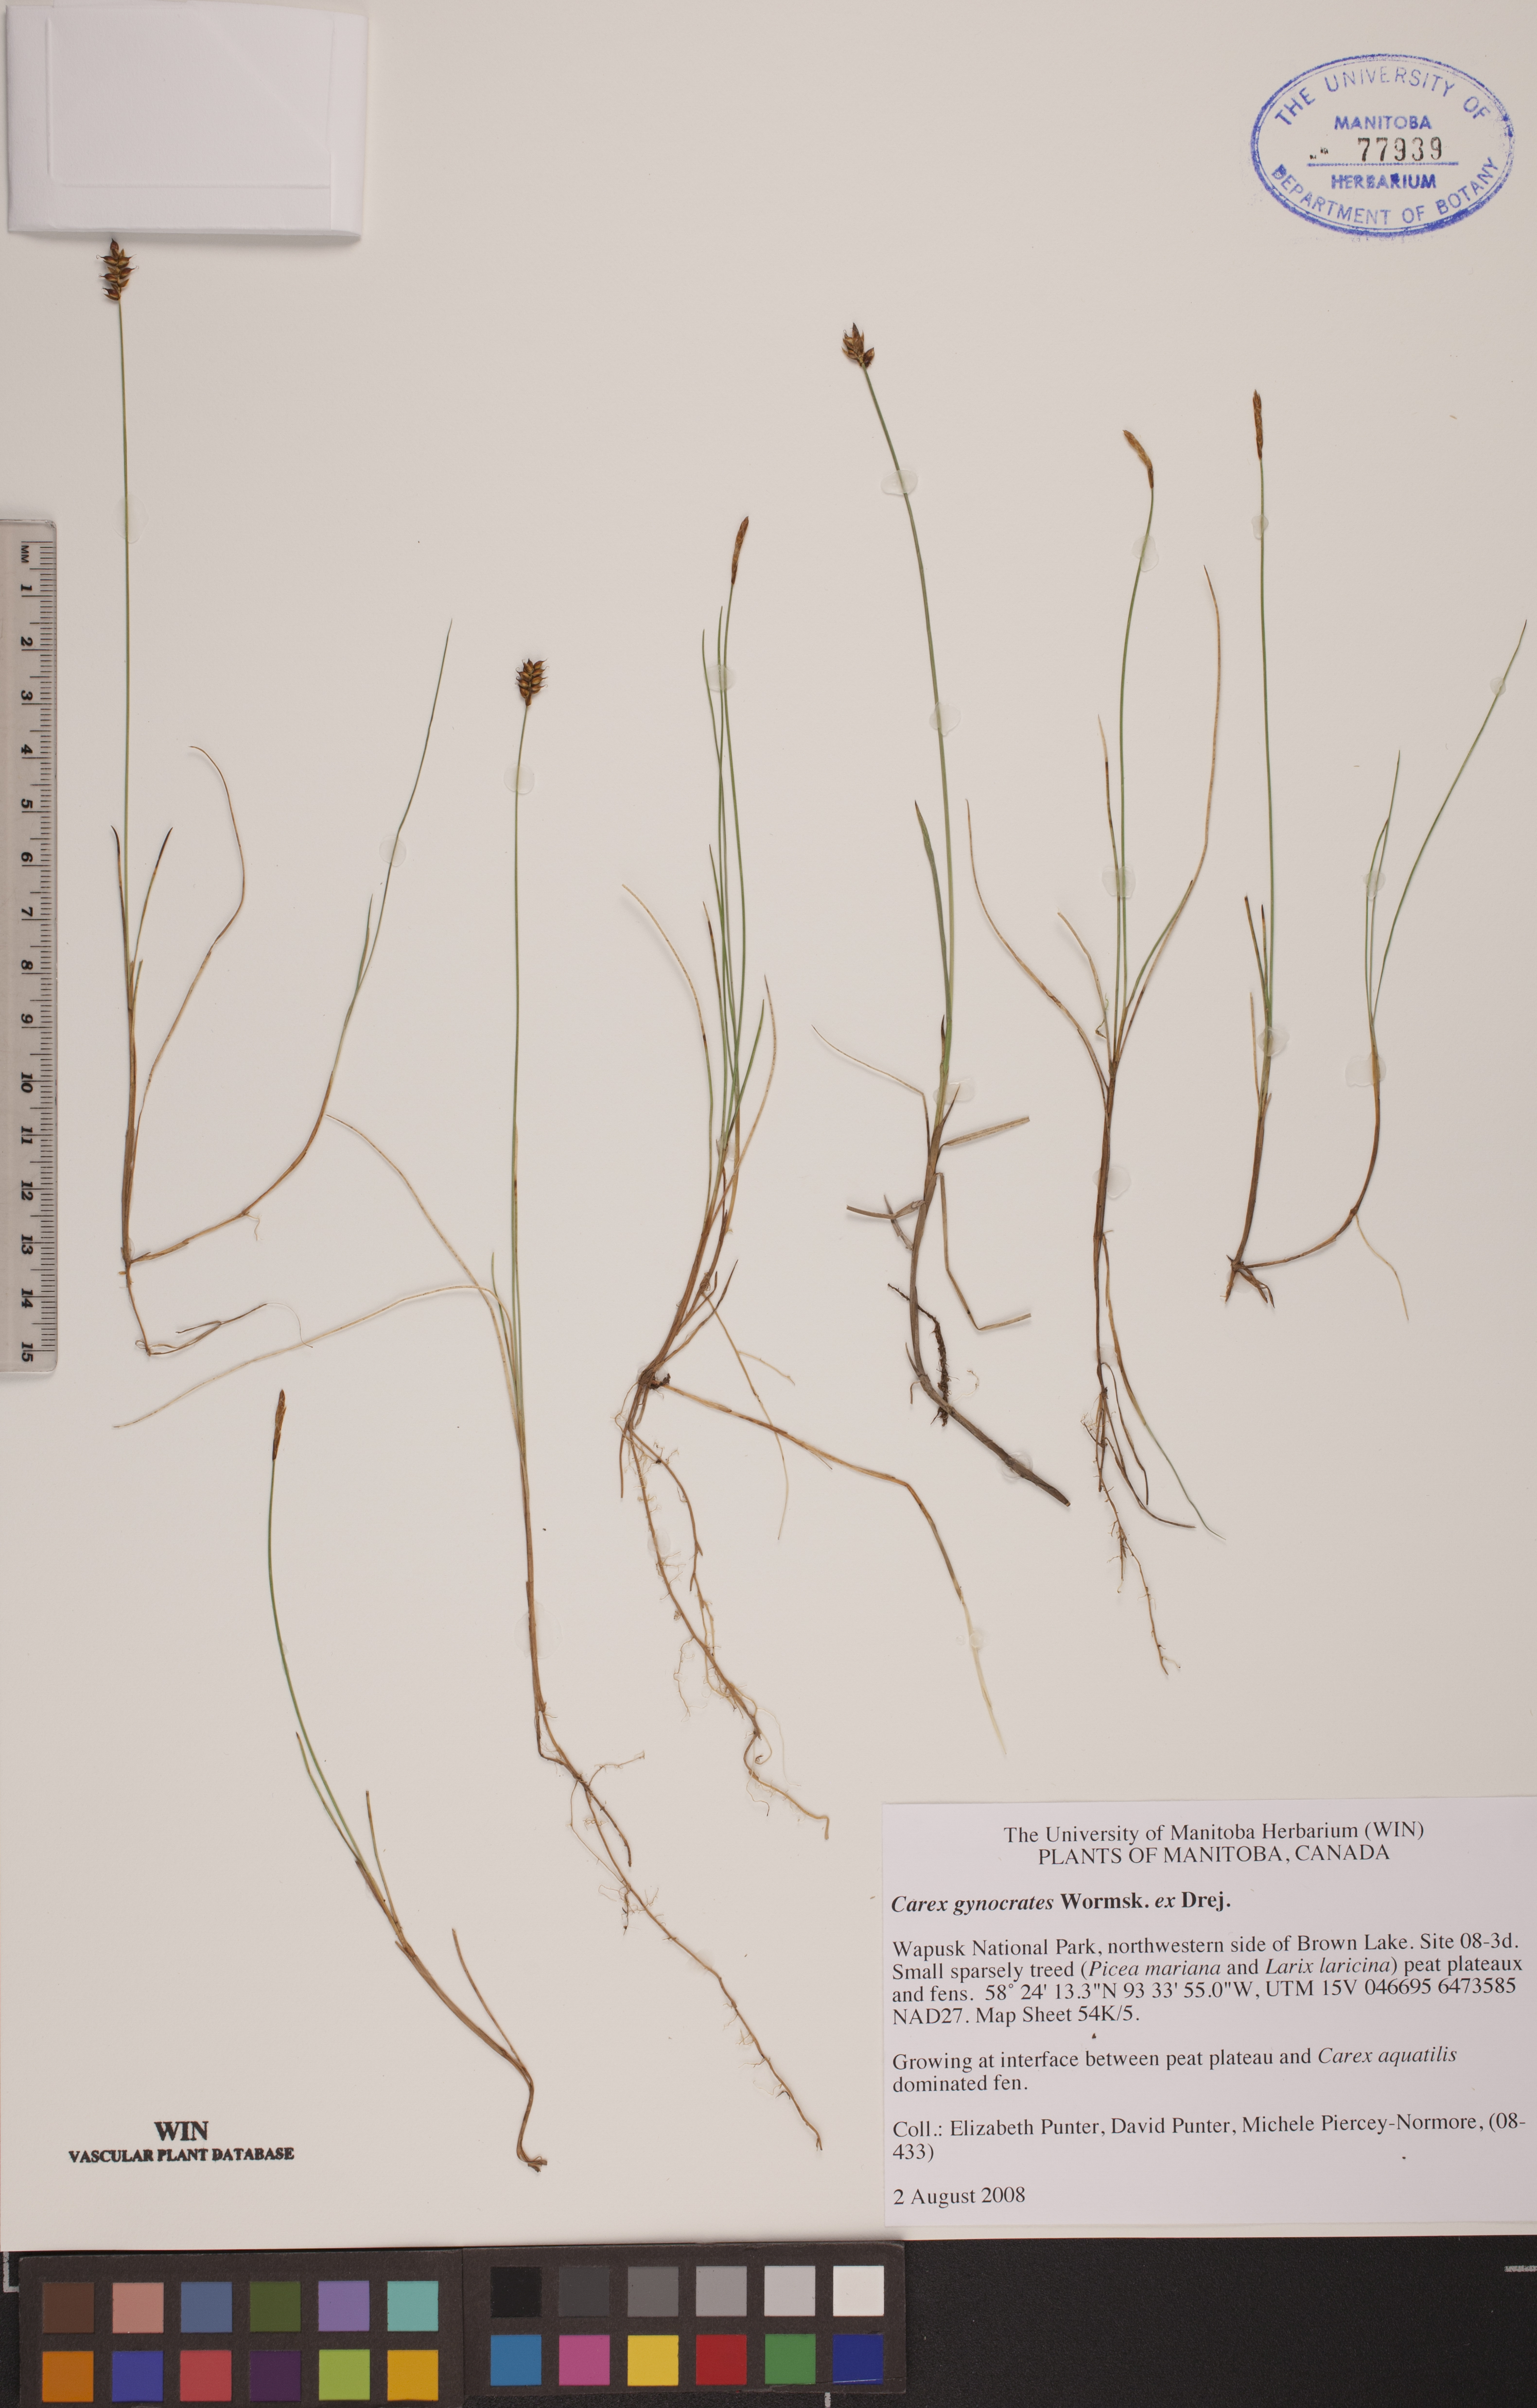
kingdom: Plantae
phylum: Tracheophyta
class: Liliopsida
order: Poales
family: Cyperaceae
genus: Carex
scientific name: Carex nardina
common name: Nard sedge
